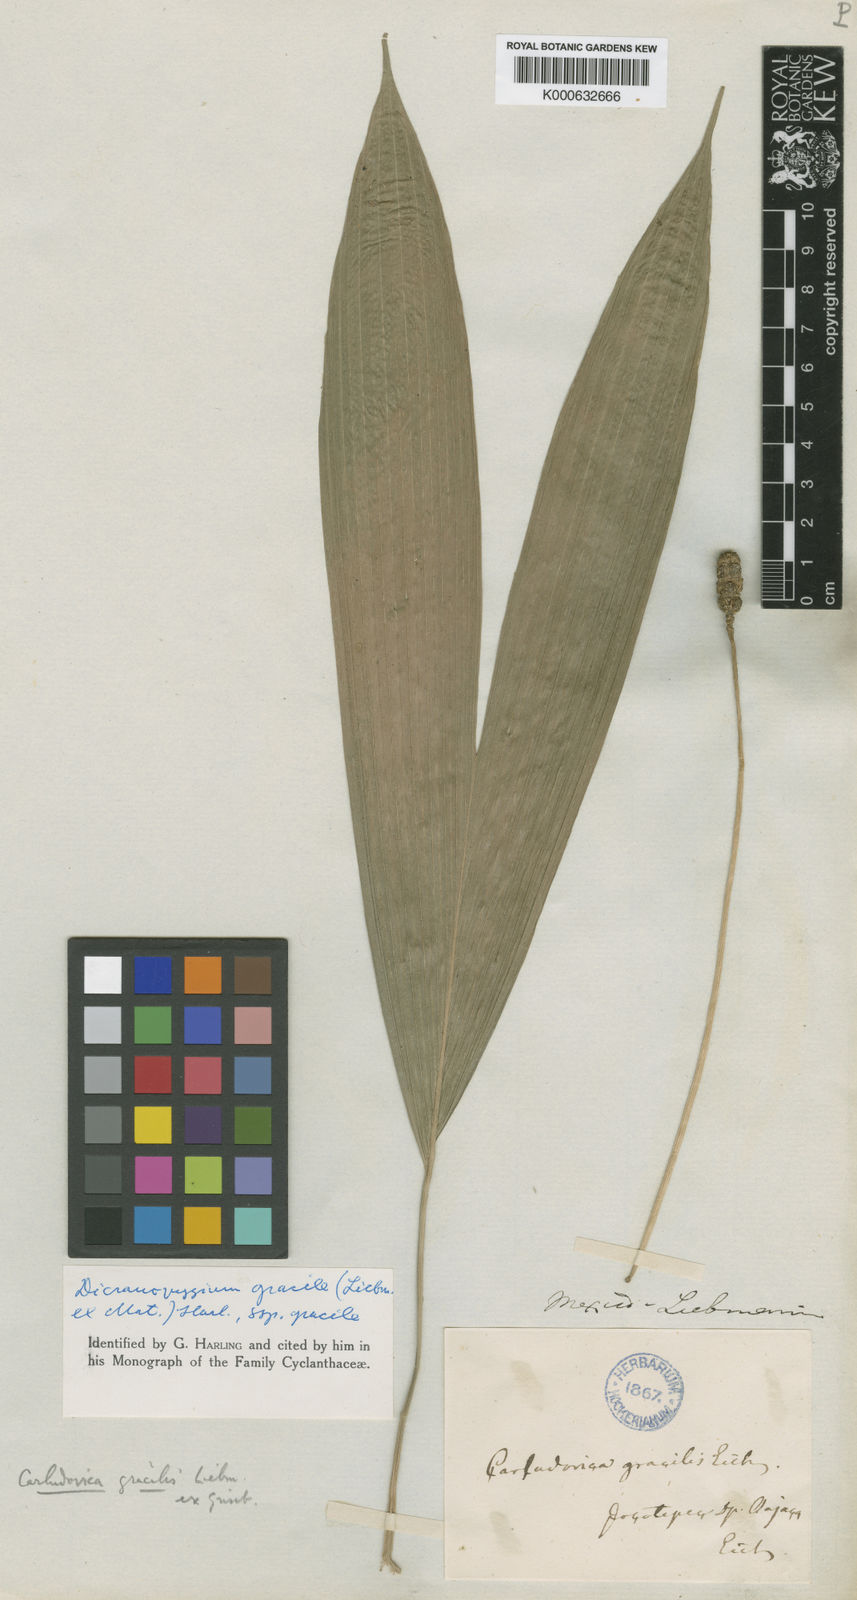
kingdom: Plantae
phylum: Tracheophyta
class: Liliopsida
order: Pandanales
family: Cyclanthaceae
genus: Dicranopygium
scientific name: Dicranopygium gracile
